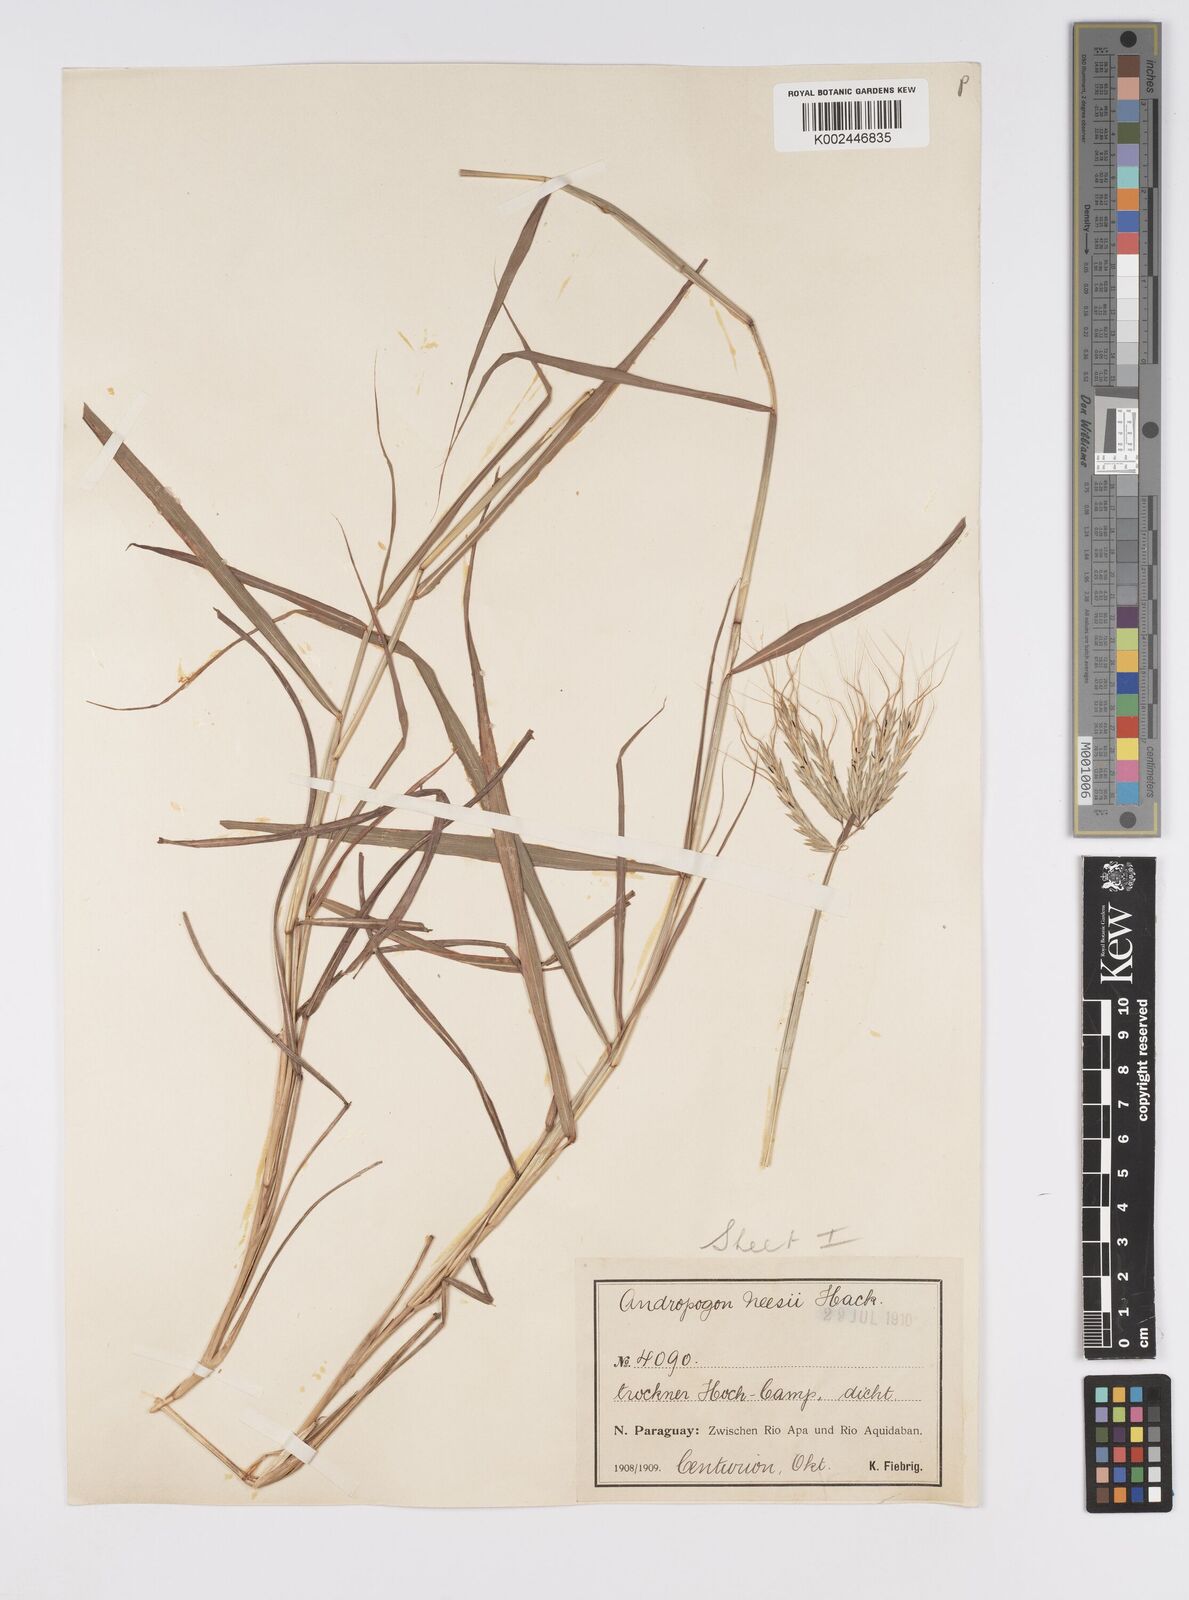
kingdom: Plantae
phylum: Tracheophyta
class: Liliopsida
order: Poales
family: Poaceae
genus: Agenium
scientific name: Agenium villosum
